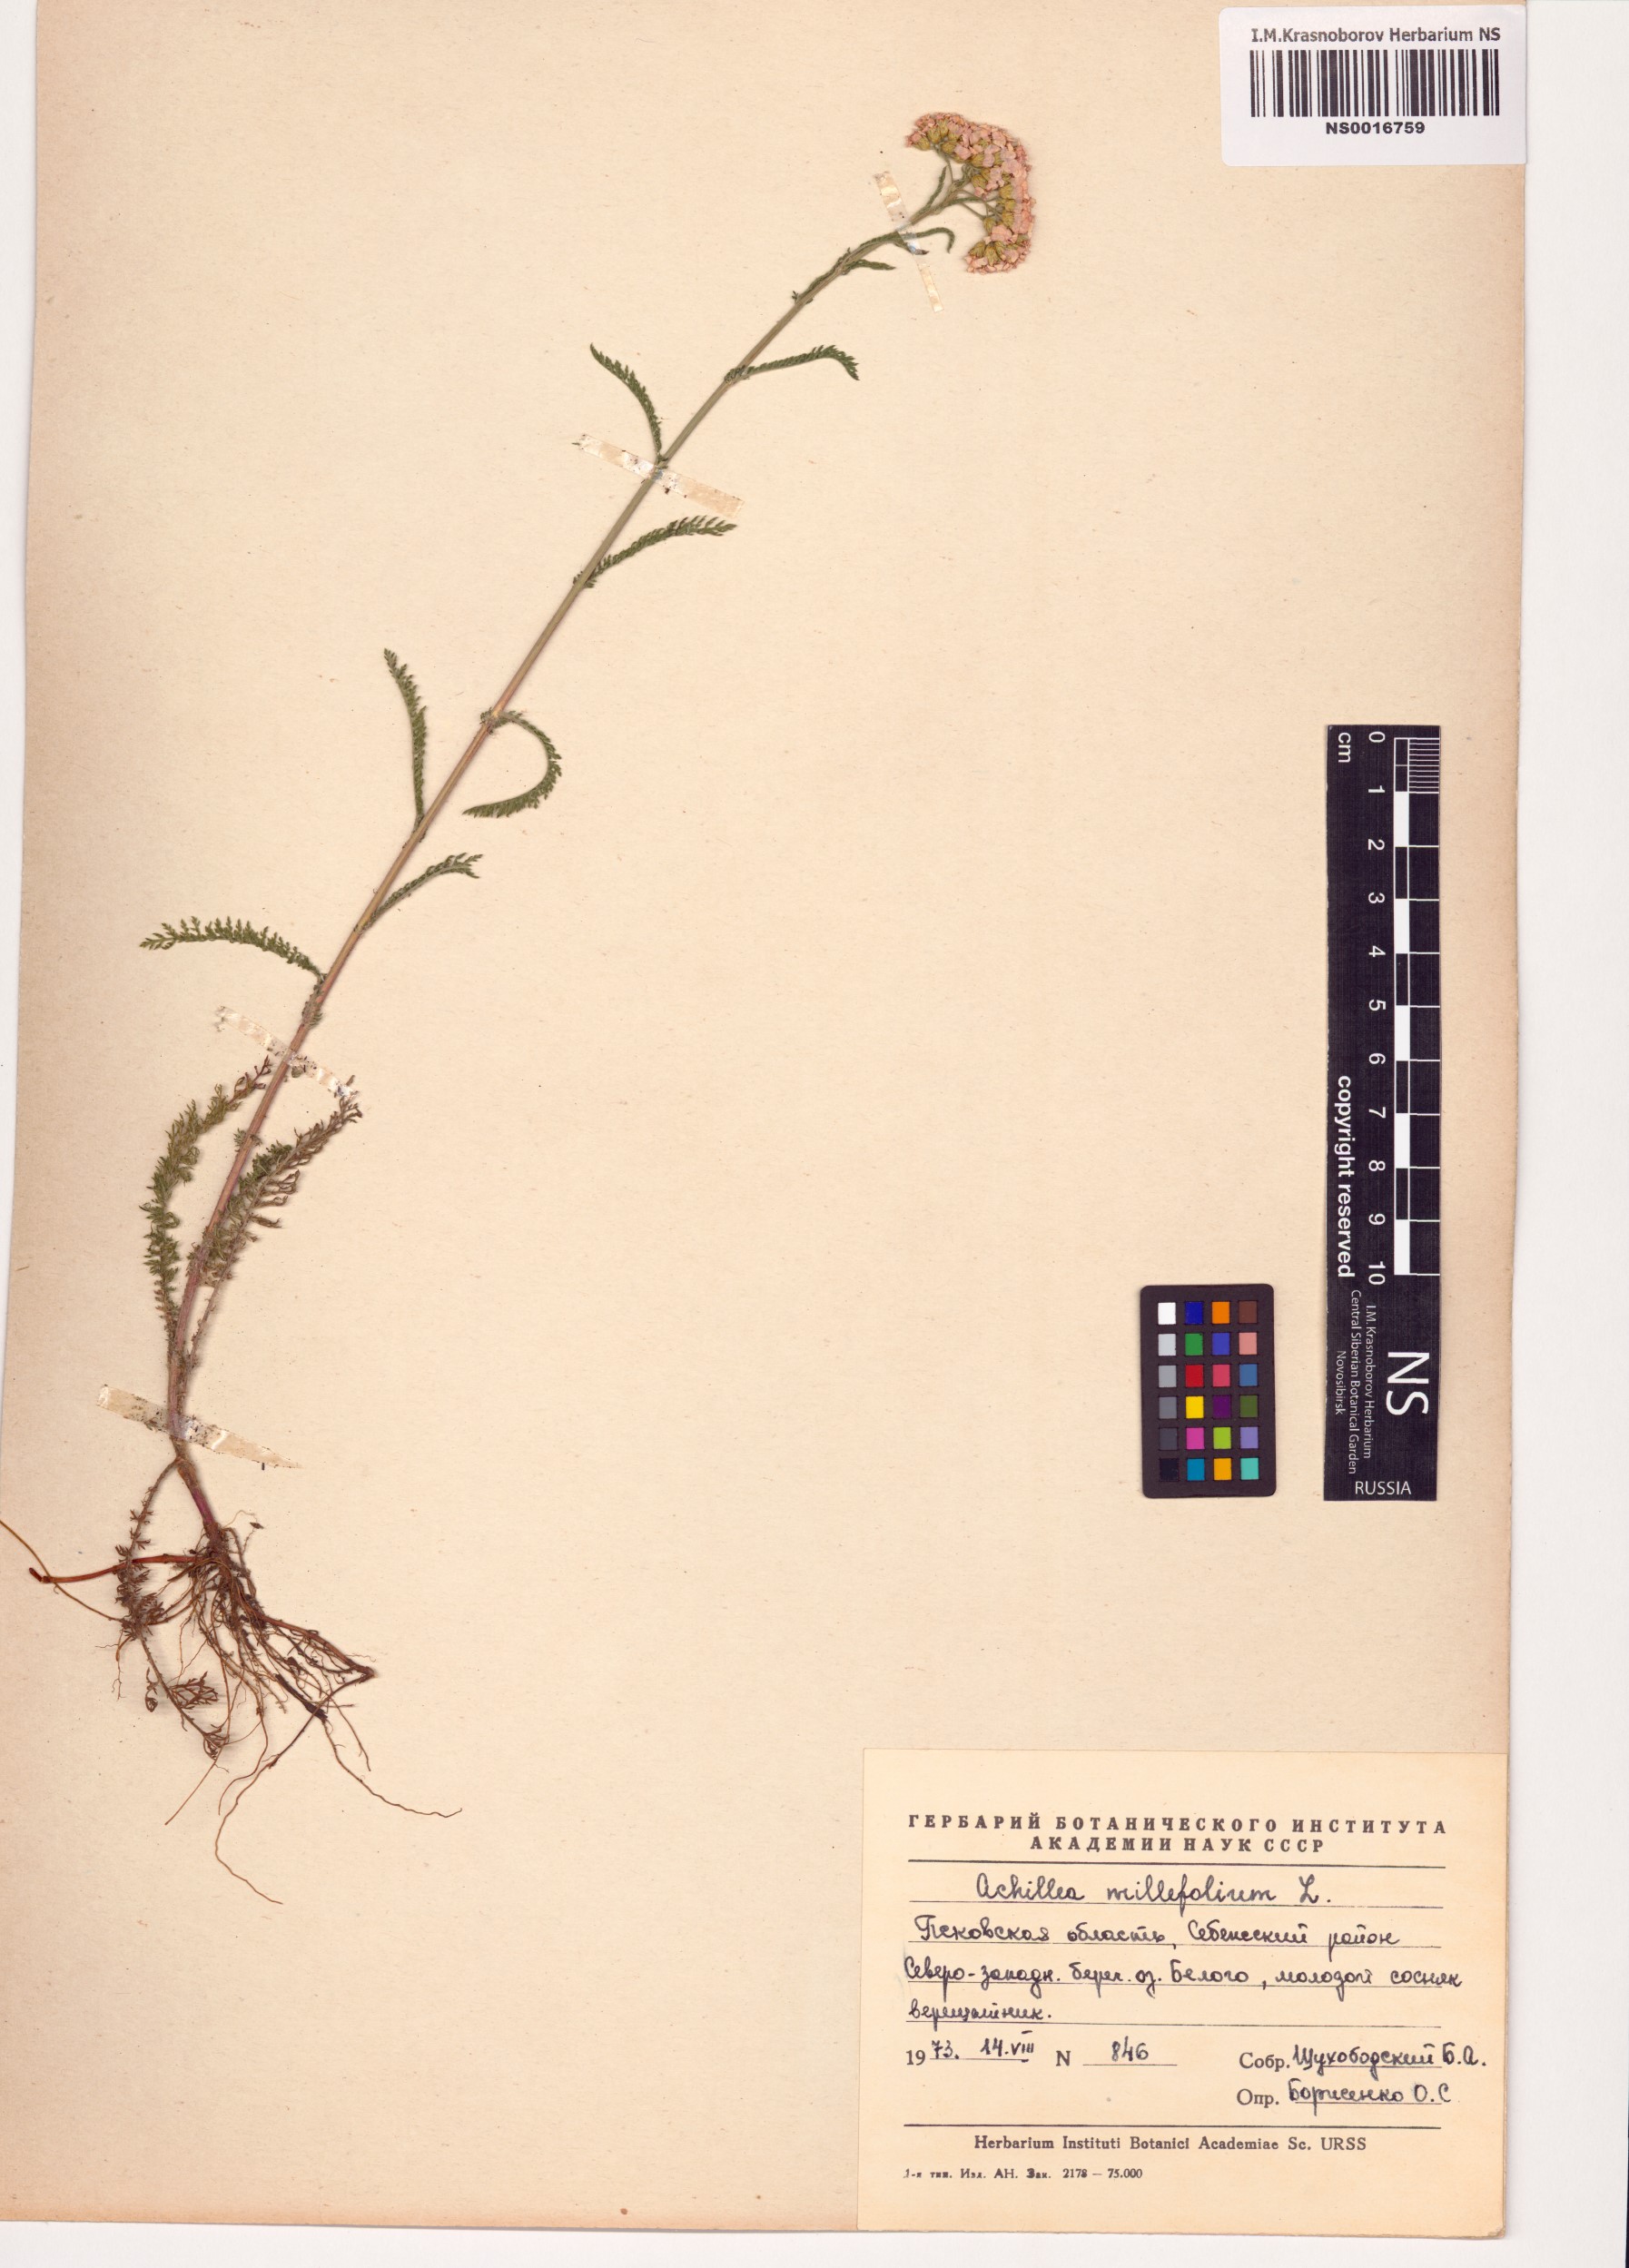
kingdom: Plantae
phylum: Tracheophyta
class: Magnoliopsida
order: Asterales
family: Asteraceae
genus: Achillea
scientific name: Achillea millefolium
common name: Yarrow
